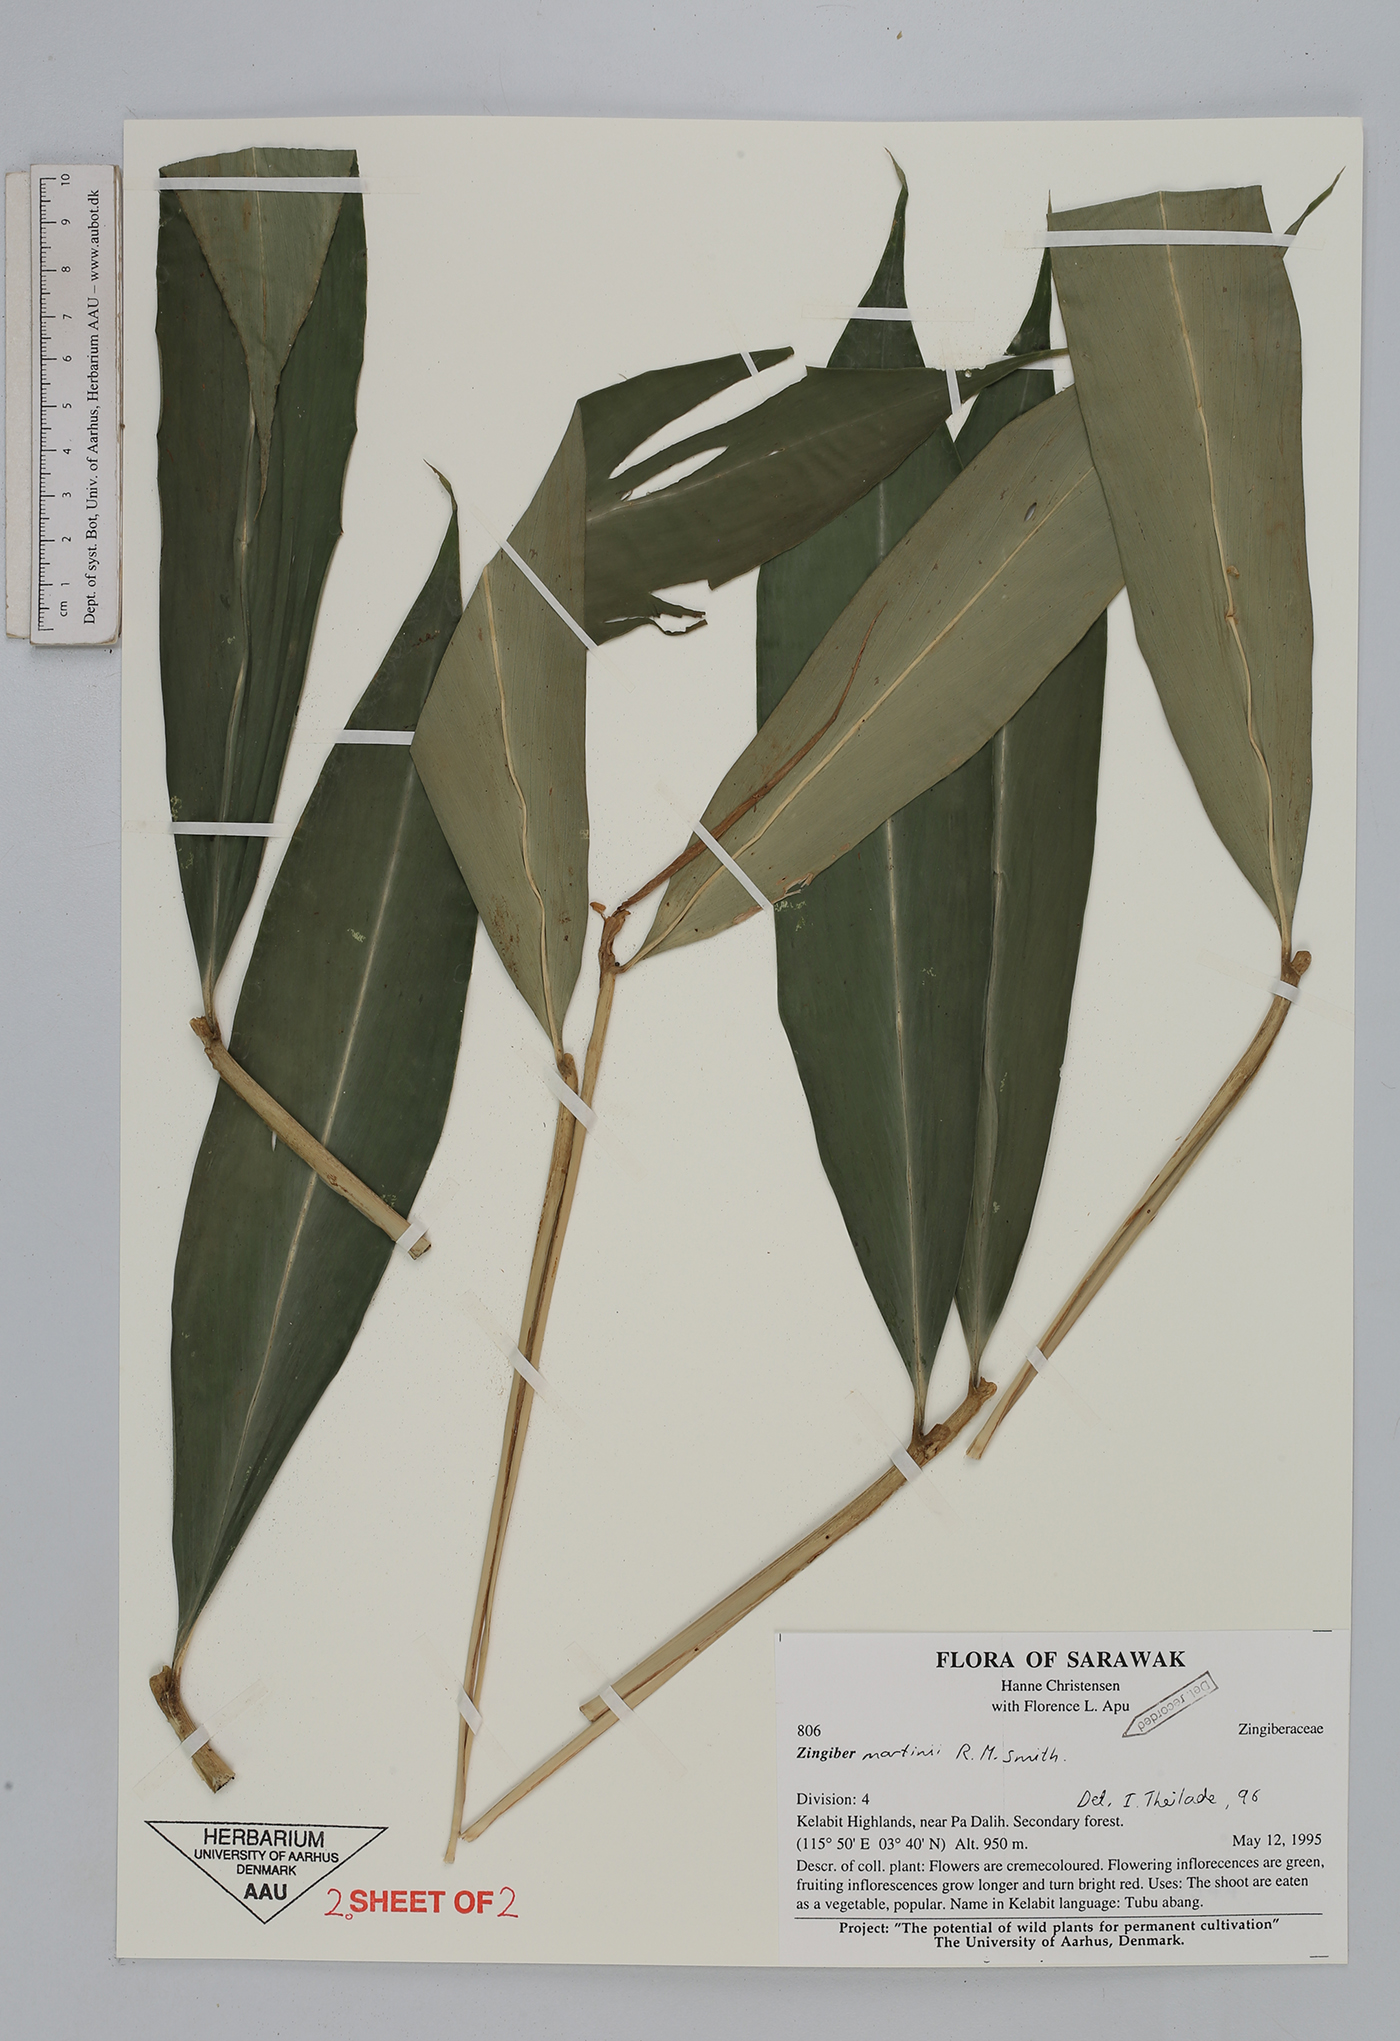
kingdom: Plantae
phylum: Tracheophyta
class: Liliopsida
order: Zingiberales
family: Zingiberaceae
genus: Zingiber
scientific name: Zingiber martini
